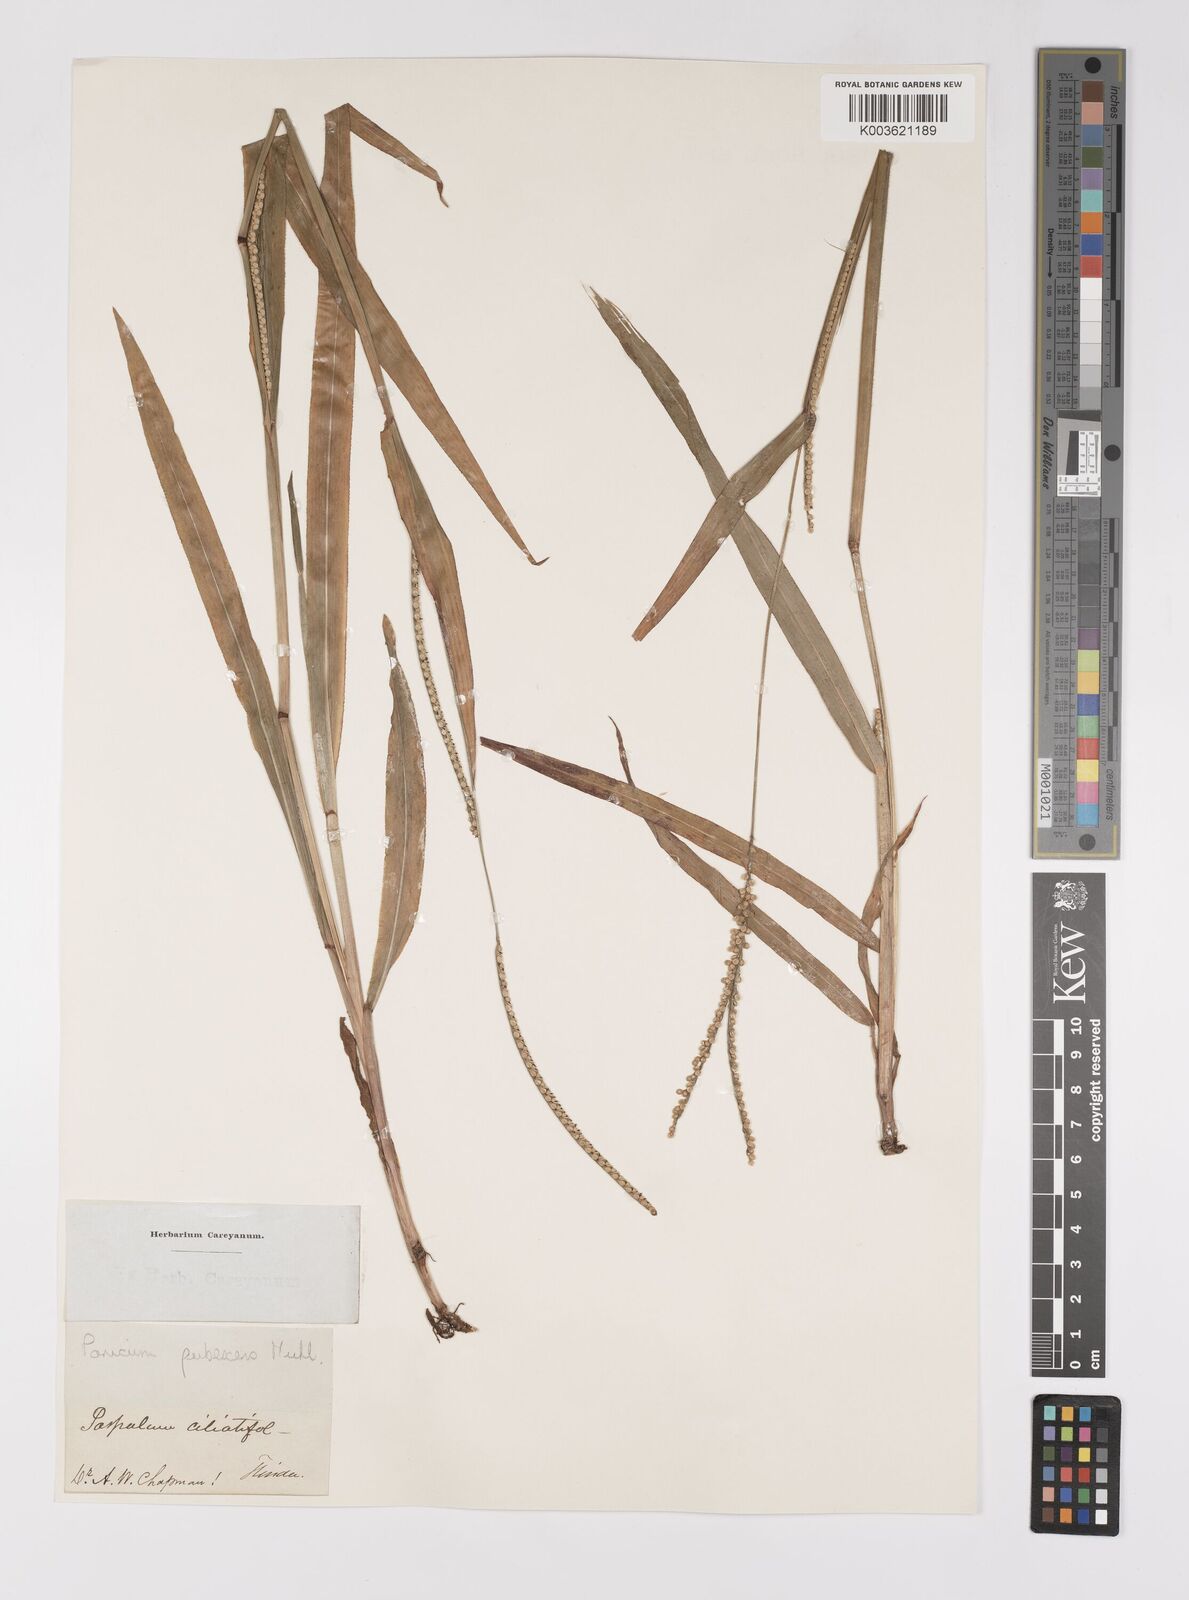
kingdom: Plantae
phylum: Tracheophyta
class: Liliopsida
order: Poales
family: Poaceae
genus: Paspalum
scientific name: Paspalum setaceum
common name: Slender paspalum
